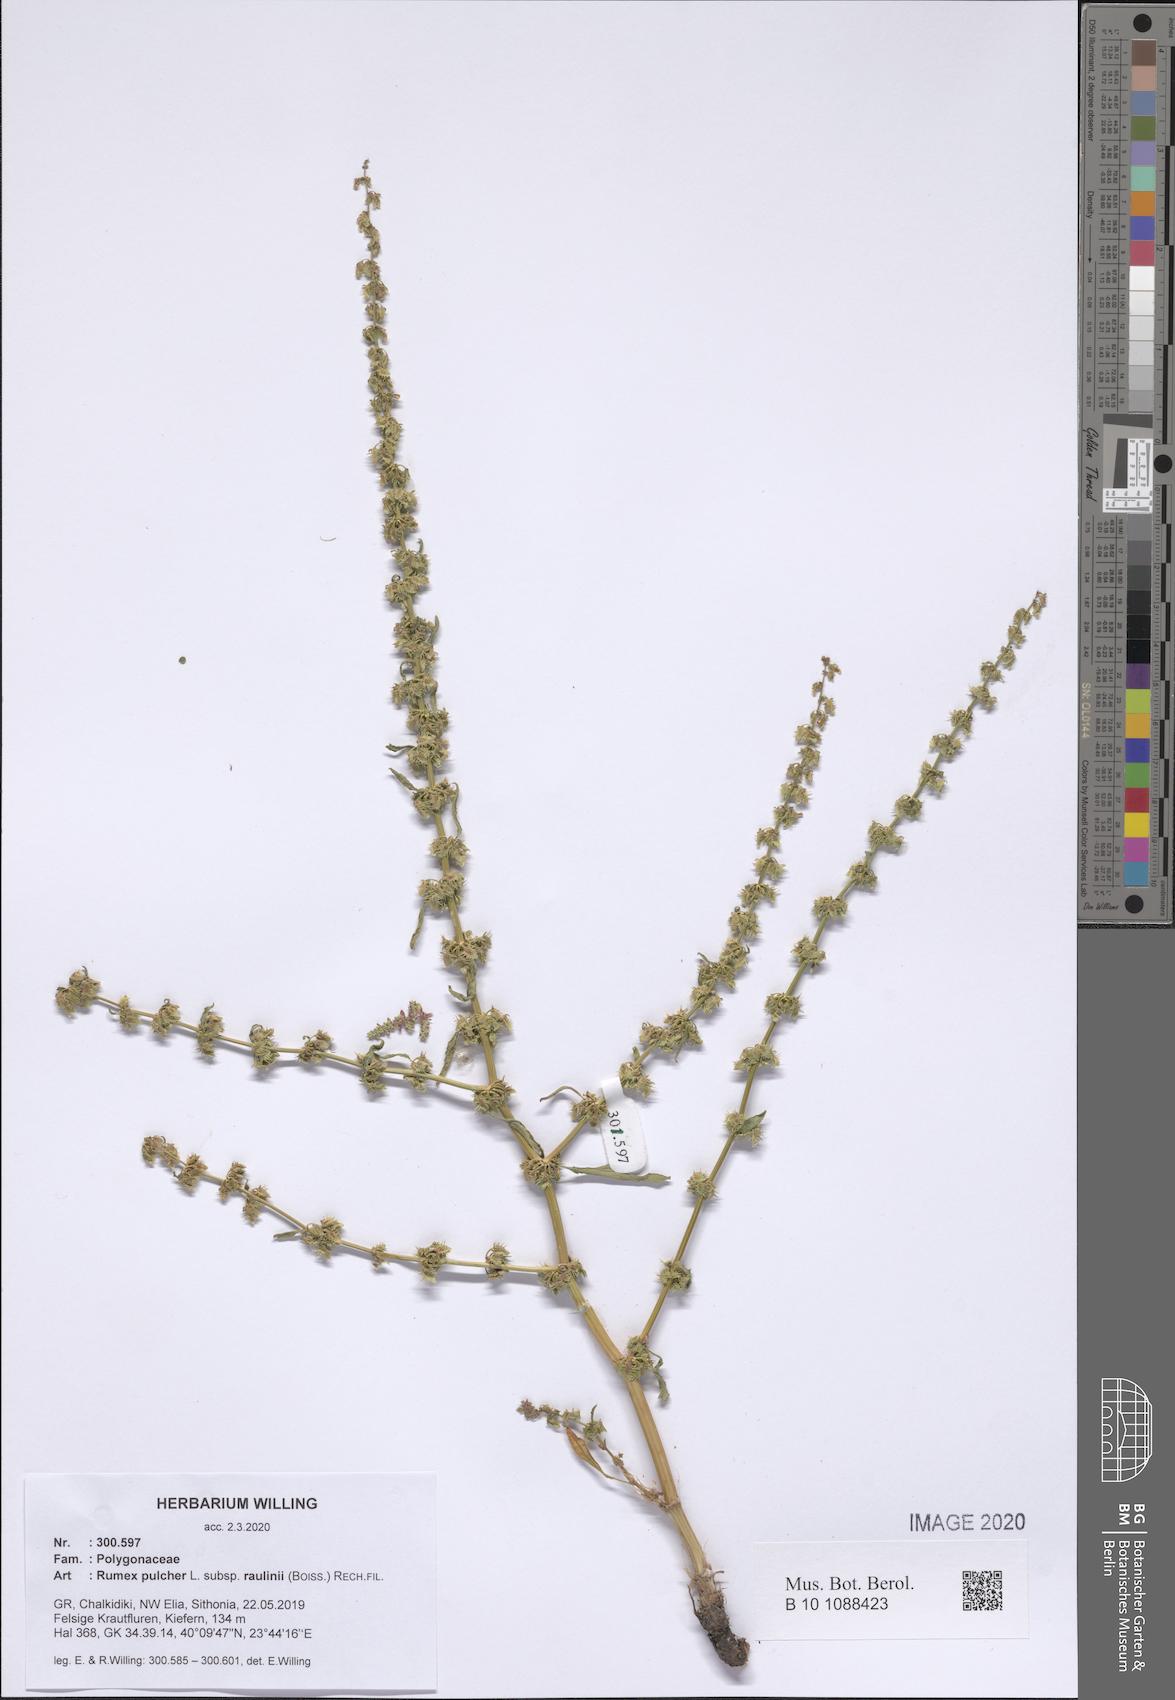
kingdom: Plantae
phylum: Tracheophyta
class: Magnoliopsida
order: Caryophyllales
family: Polygonaceae
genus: Rumex
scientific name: Rumex pulcher
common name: Fiddle dock
